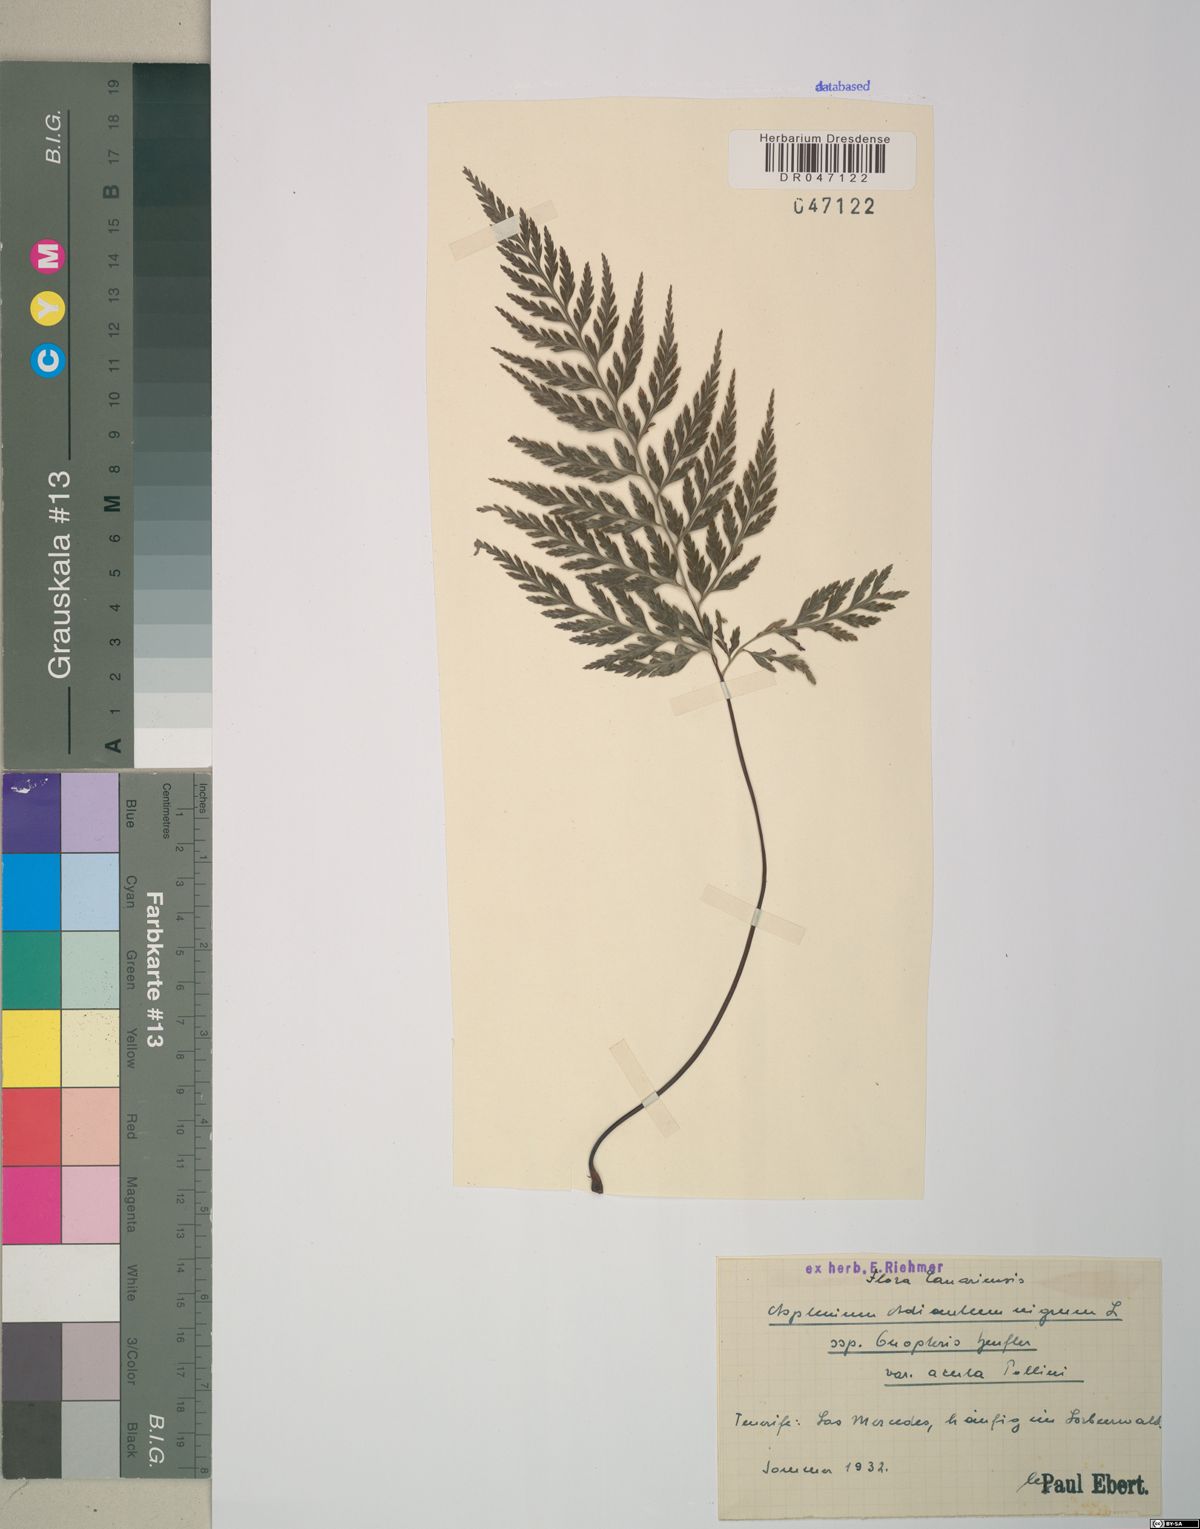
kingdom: Plantae
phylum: Tracheophyta
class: Polypodiopsida
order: Polypodiales
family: Aspleniaceae
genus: Asplenium
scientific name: Asplenium onopteris
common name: Irish spleenwort
